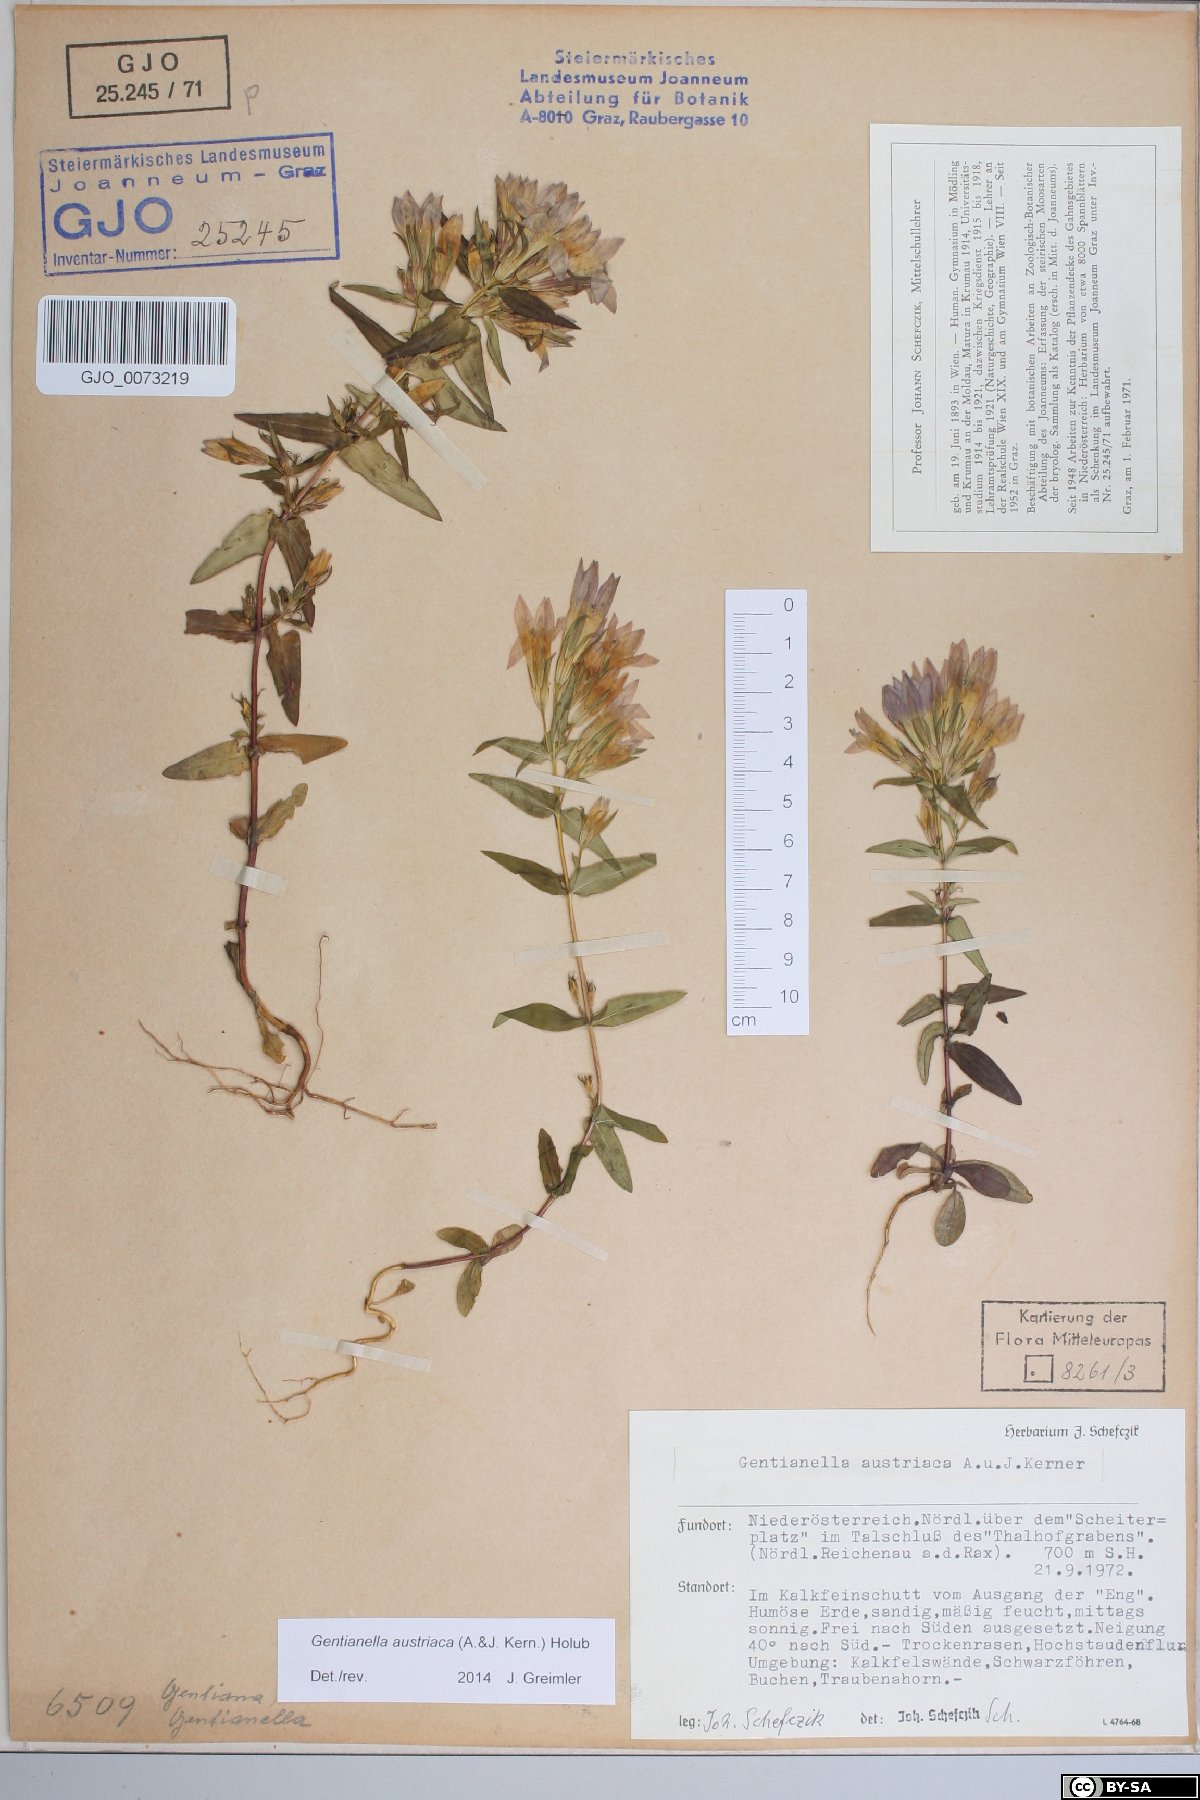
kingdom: Plantae
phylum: Tracheophyta
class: Magnoliopsida
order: Gentianales
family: Gentianaceae
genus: Gentianella
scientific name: Gentianella austriaca
